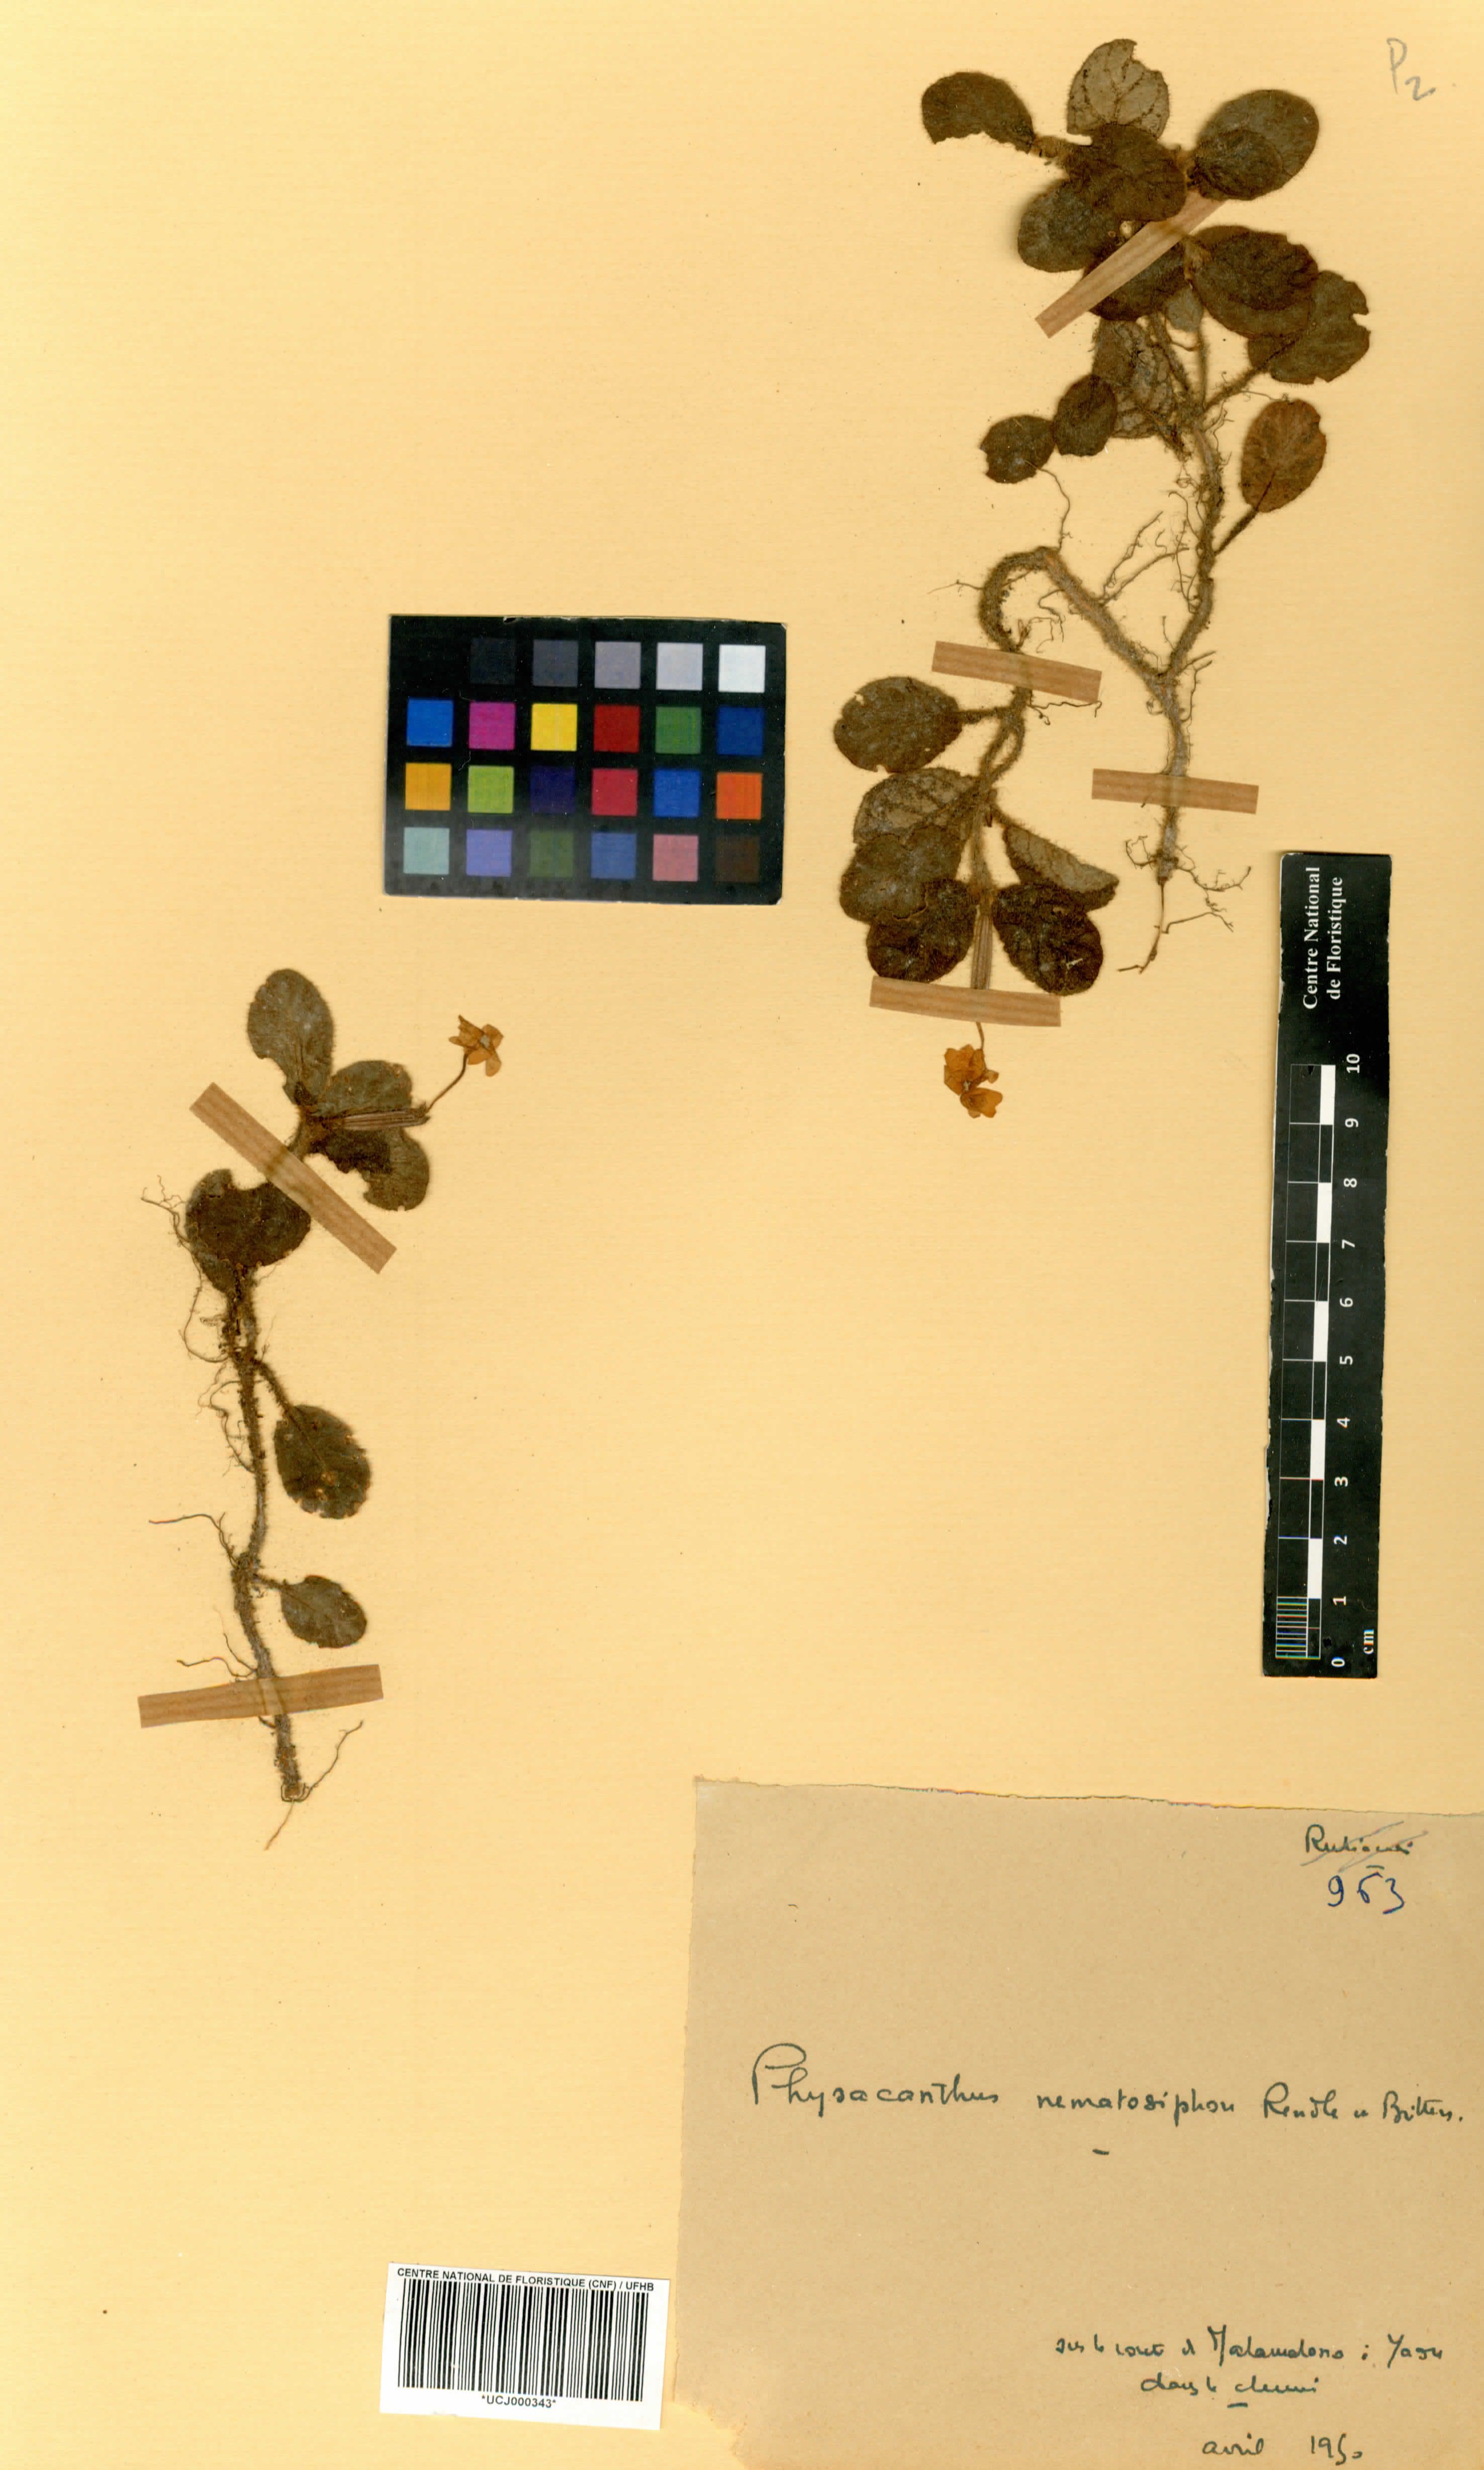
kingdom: Plantae
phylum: Tracheophyta
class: Magnoliopsida
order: Lamiales
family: Acanthaceae
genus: Physacanthus
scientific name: Physacanthus batanganus
